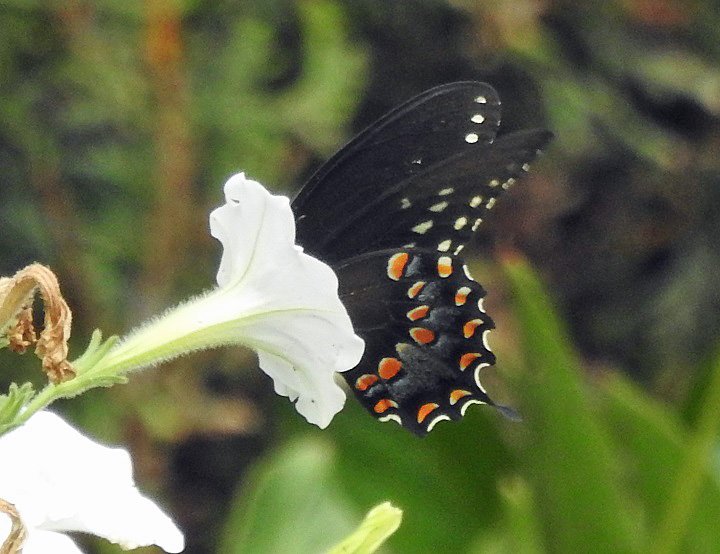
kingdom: Animalia
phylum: Arthropoda
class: Insecta
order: Lepidoptera
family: Papilionidae
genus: Pterourus
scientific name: Pterourus troilus
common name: Spicebush Swallowtail
